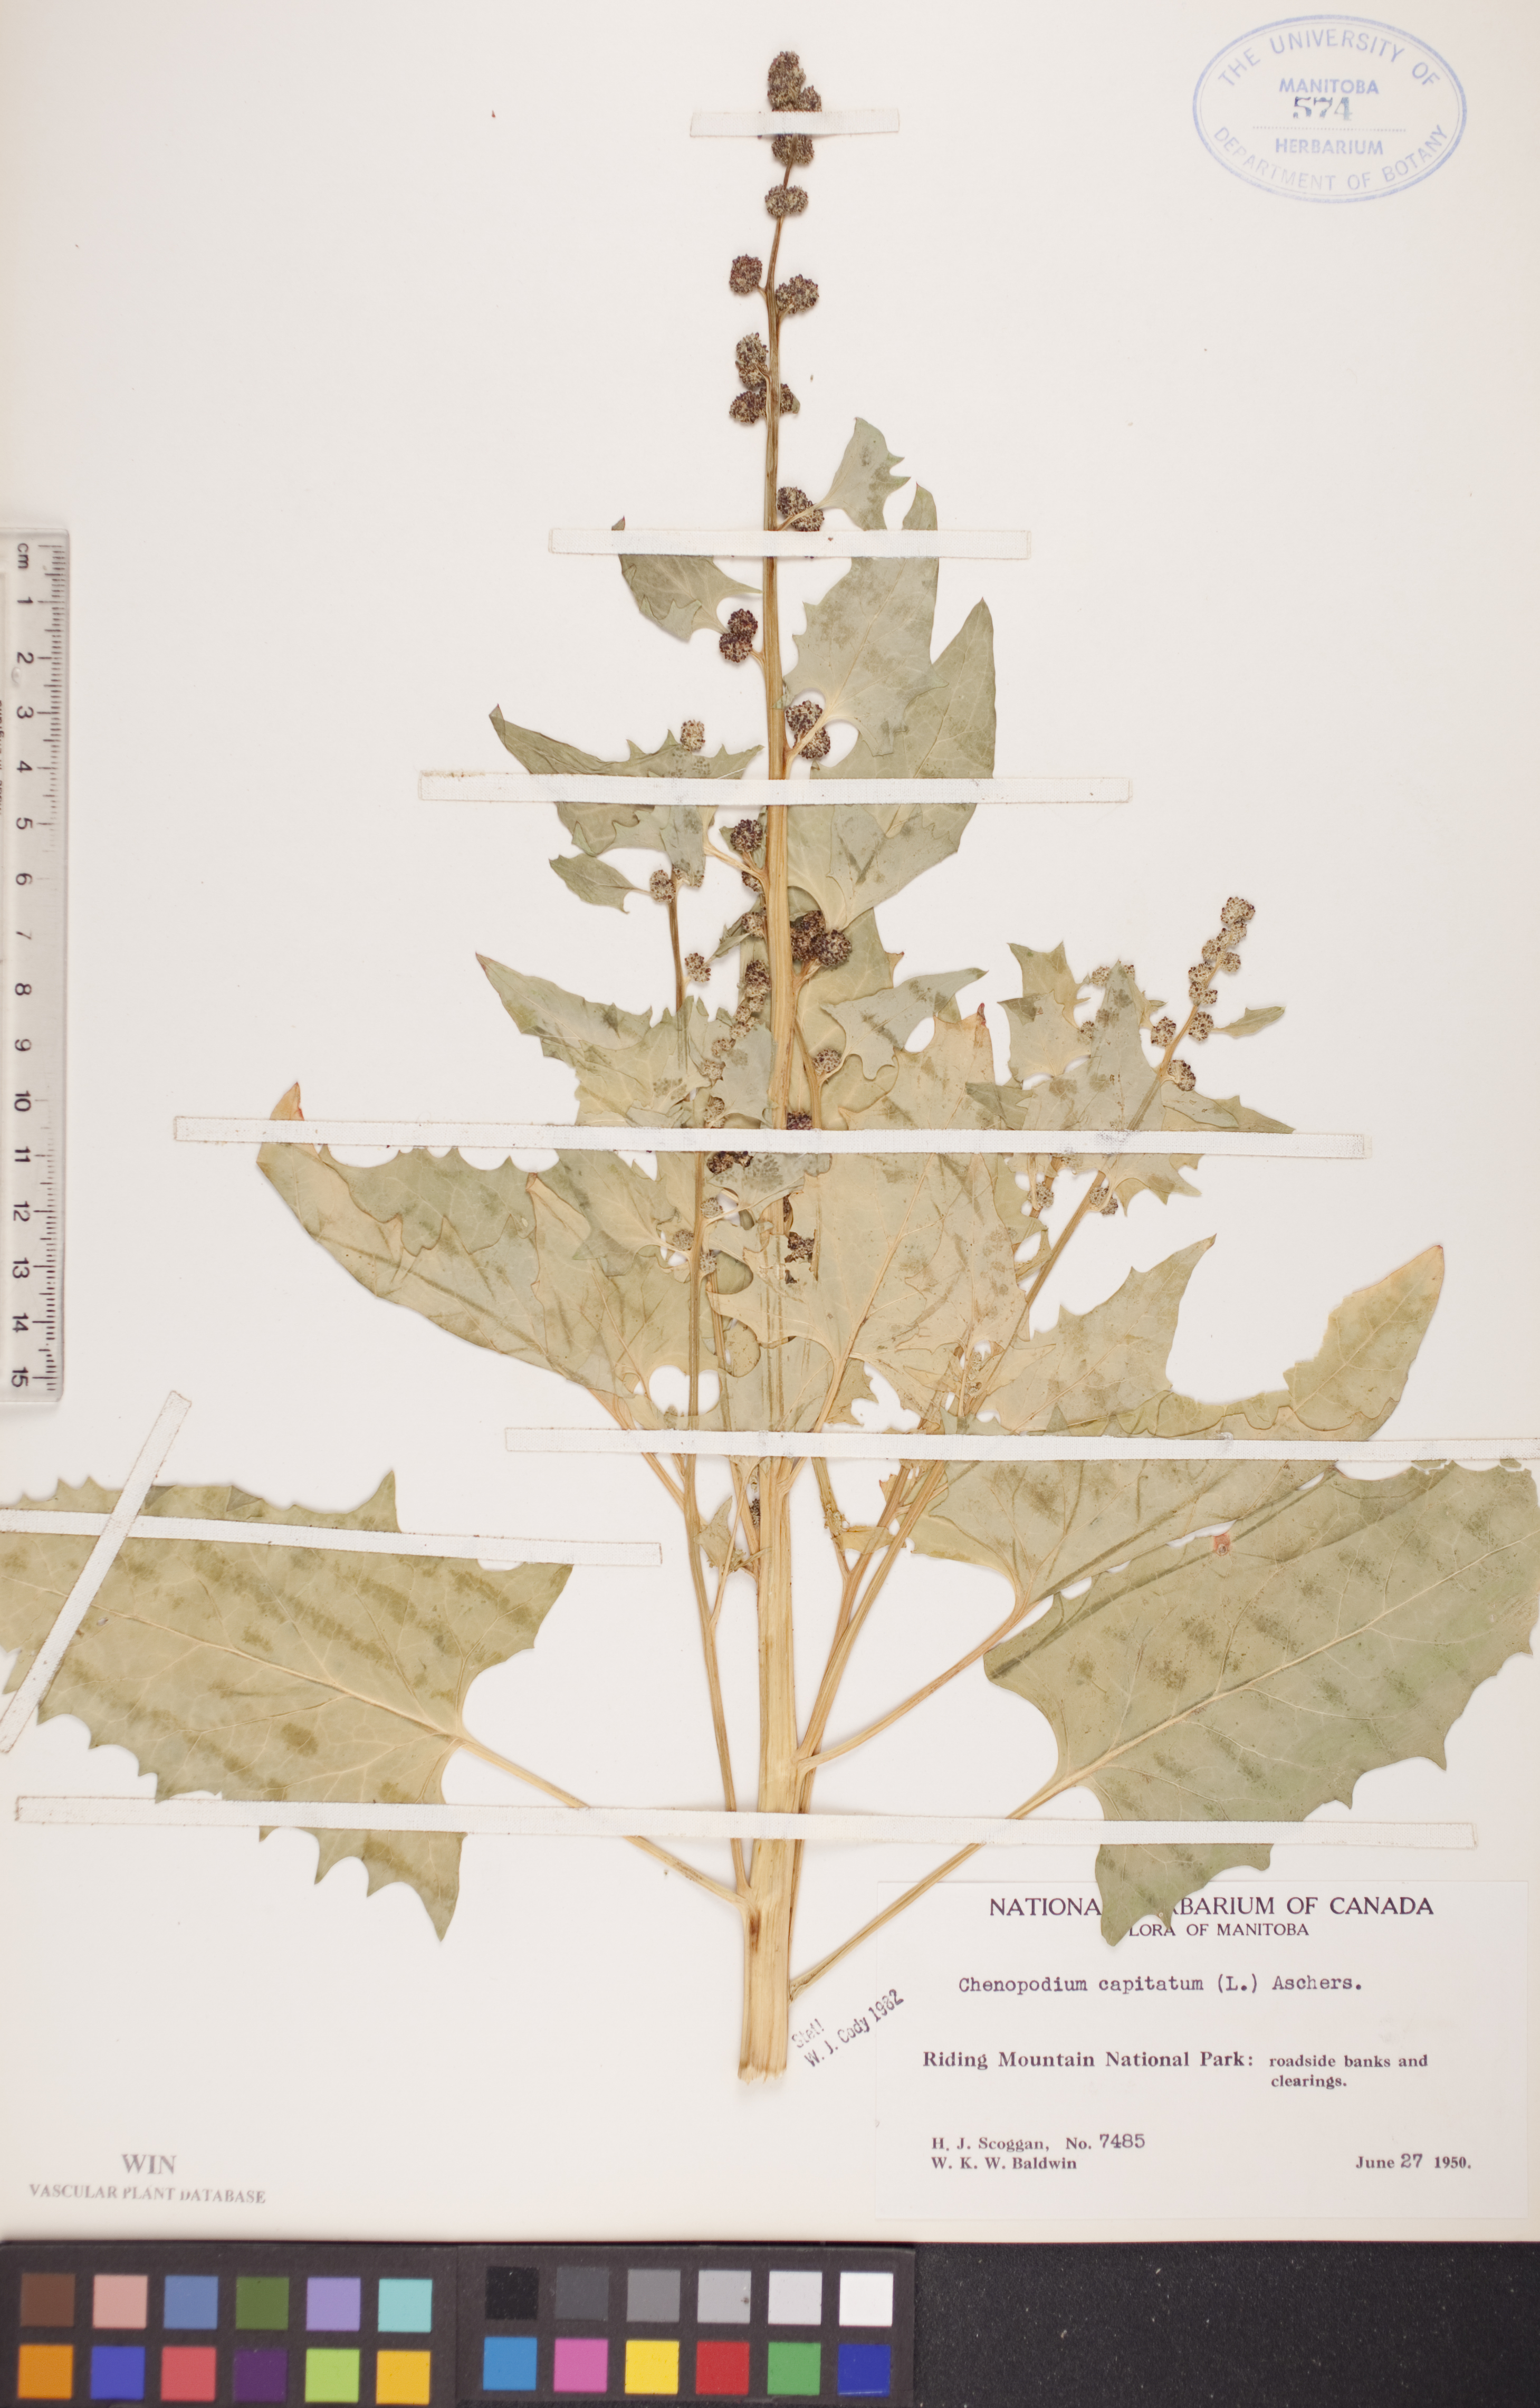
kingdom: Plantae
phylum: Tracheophyta
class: Magnoliopsida
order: Caryophyllales
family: Amaranthaceae
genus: Blitum
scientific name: Blitum capitatum
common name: Strawberry-blight
